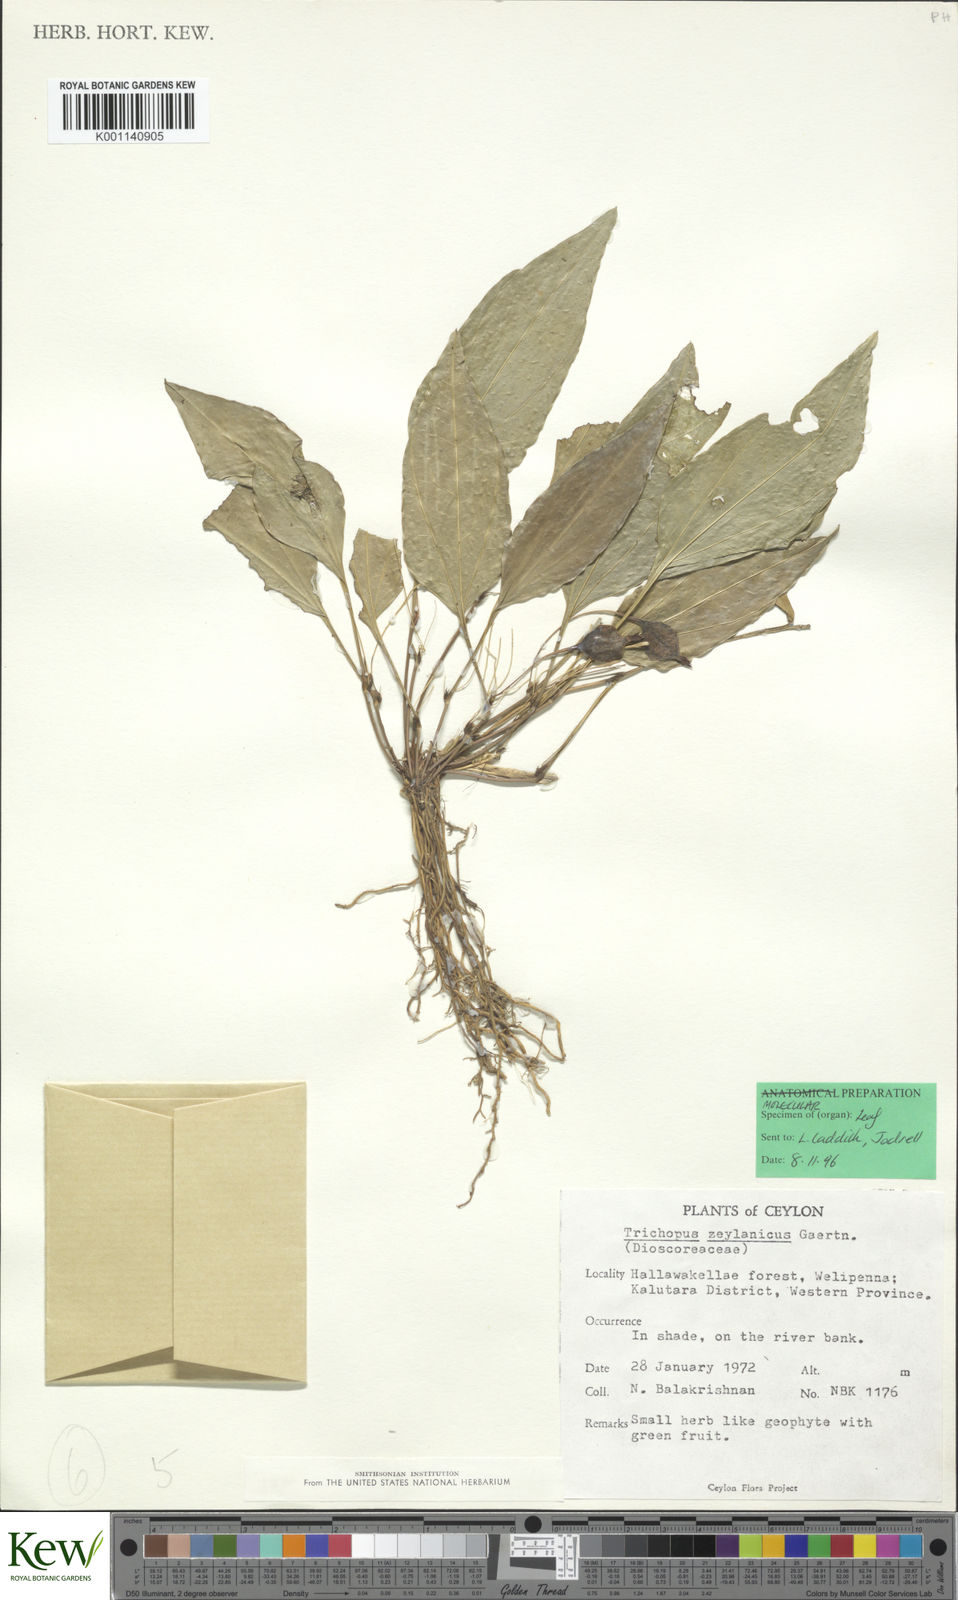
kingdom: Plantae
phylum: Tracheophyta
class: Liliopsida
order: Dioscoreales
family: Dioscoreaceae
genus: Trichopus
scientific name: Trichopus zeylanicus
